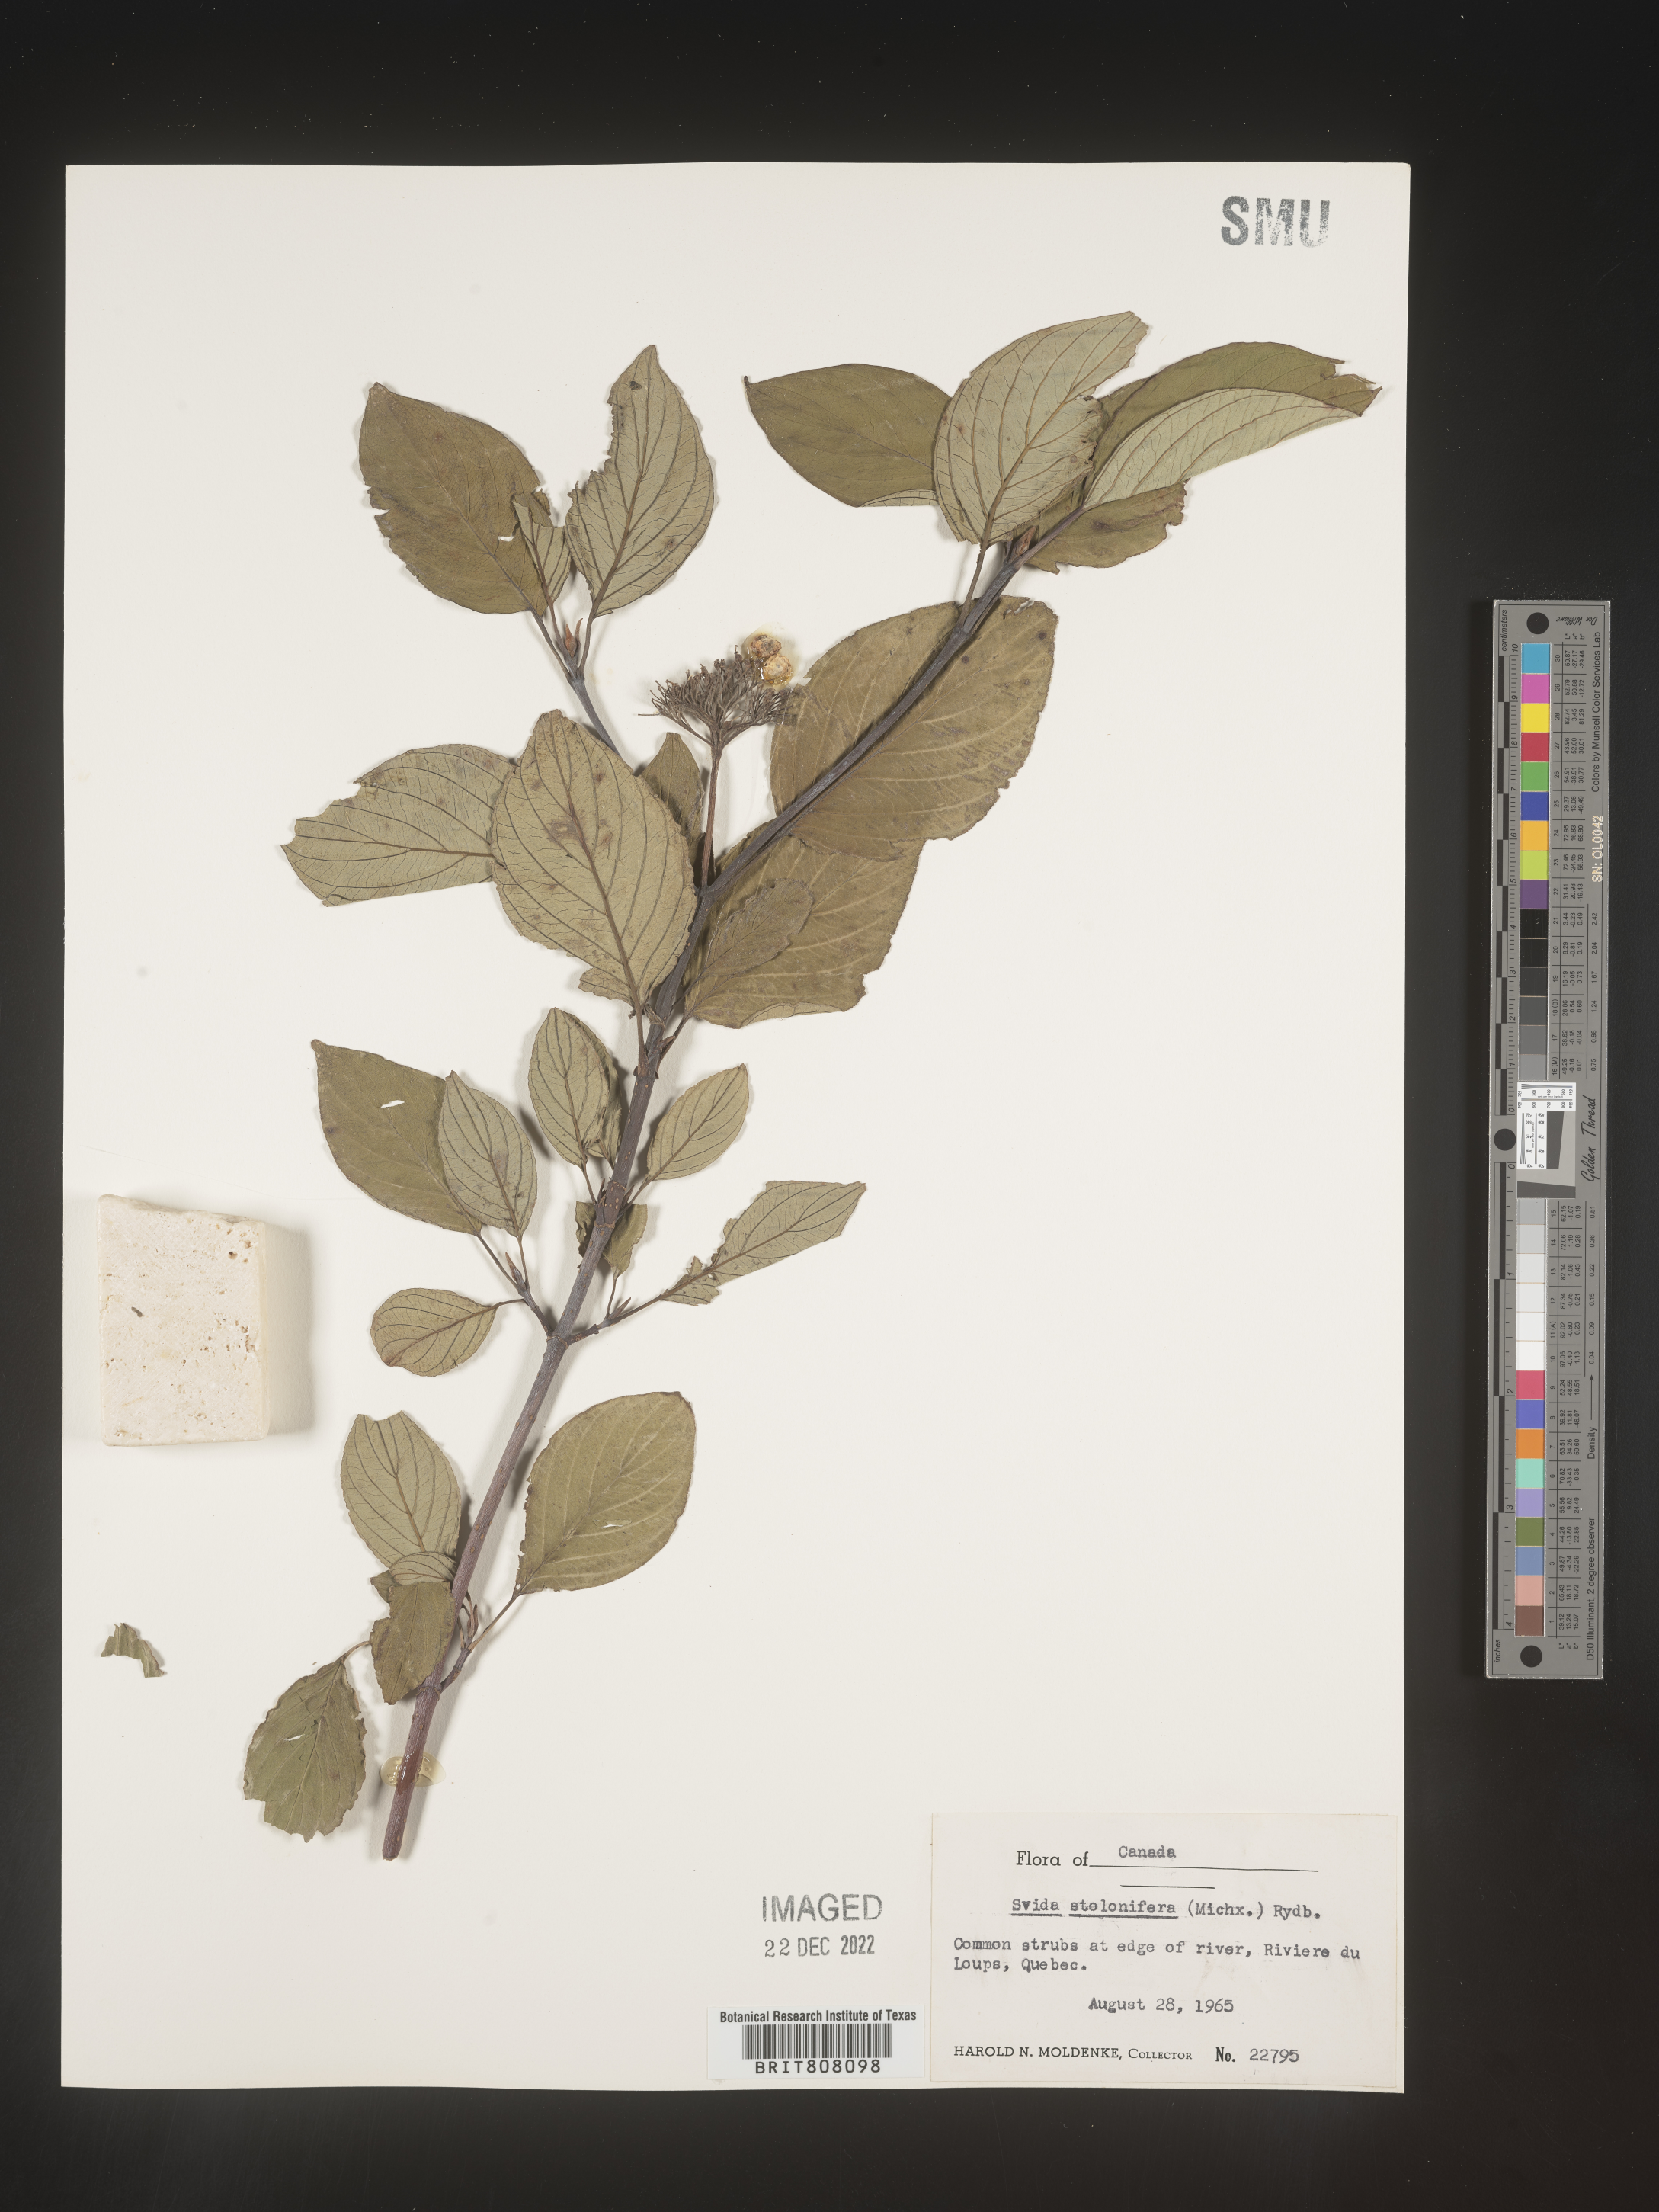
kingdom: Plantae
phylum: Tracheophyta
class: Magnoliopsida
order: Cornales
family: Cornaceae
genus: Cornus
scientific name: Cornus sericea
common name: Red-osier dogwood
